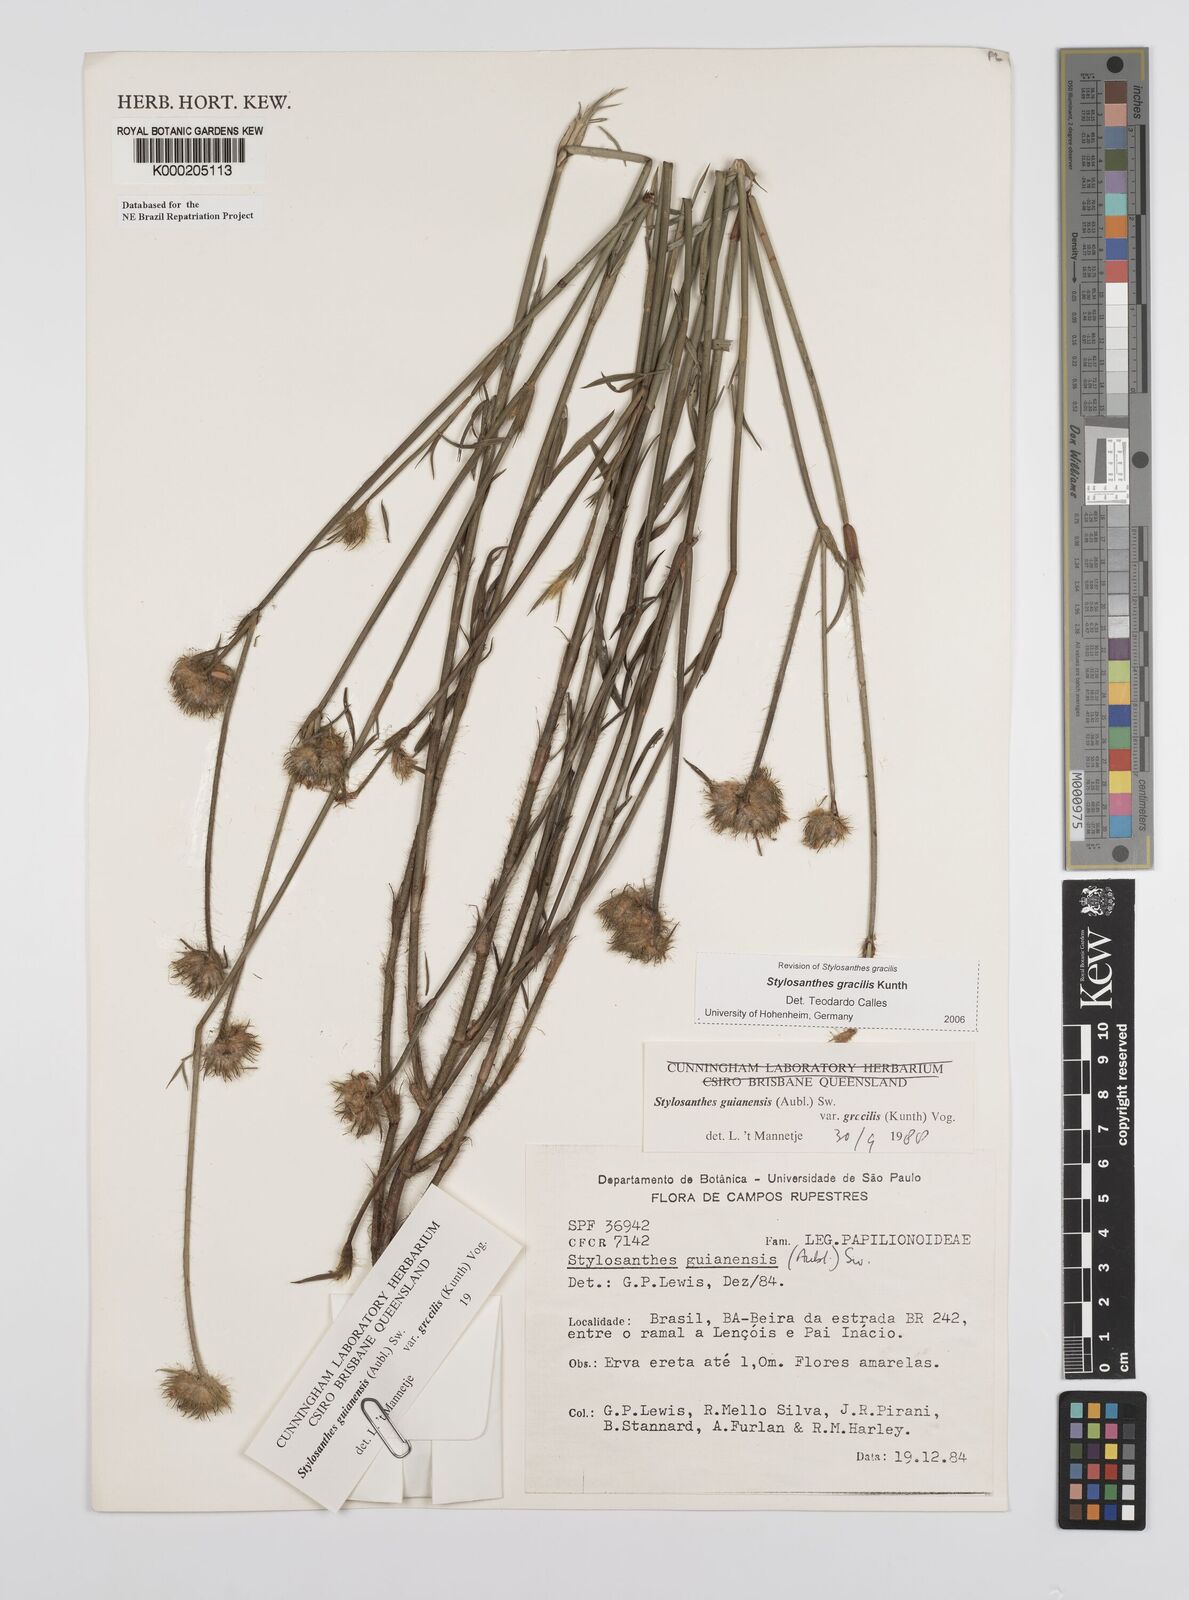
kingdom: Plantae
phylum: Tracheophyta
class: Magnoliopsida
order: Fabales
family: Fabaceae
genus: Stylosanthes
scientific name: Stylosanthes guianensis
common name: Pencil flower
